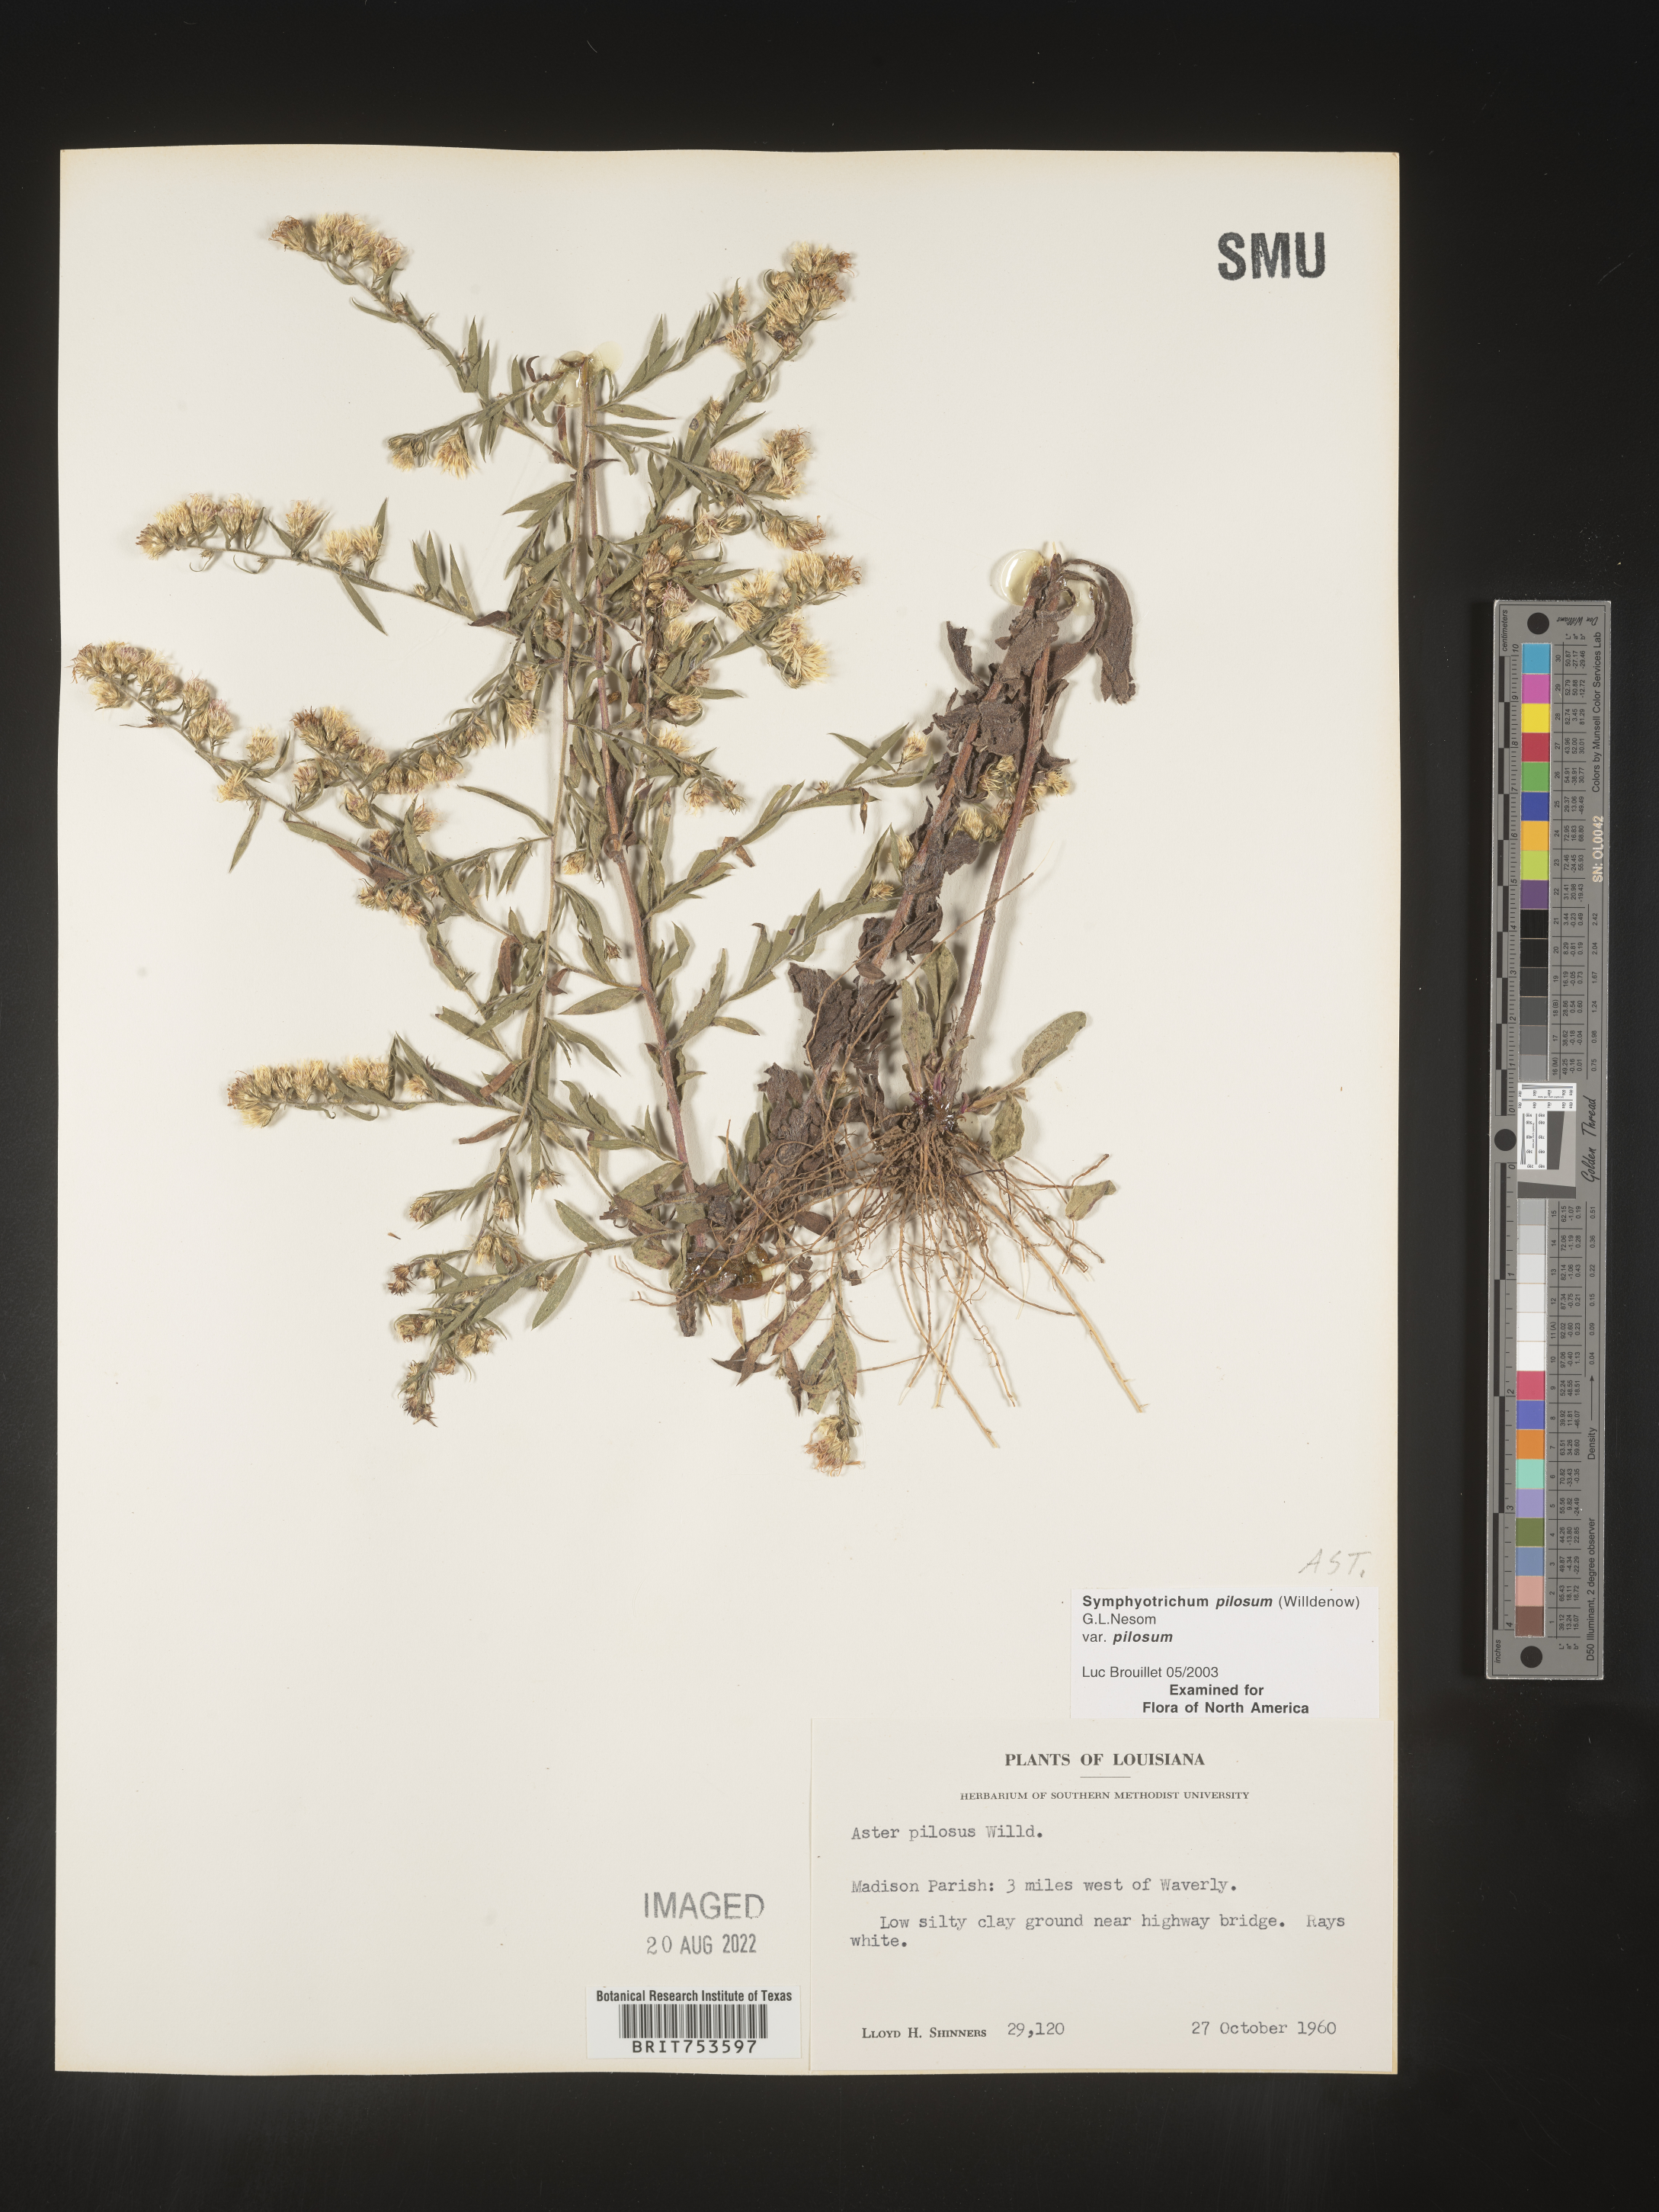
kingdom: Plantae
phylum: Tracheophyta
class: Magnoliopsida
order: Asterales
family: Asteraceae
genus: Symphyotrichum
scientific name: Symphyotrichum pilosum
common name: Awl aster
